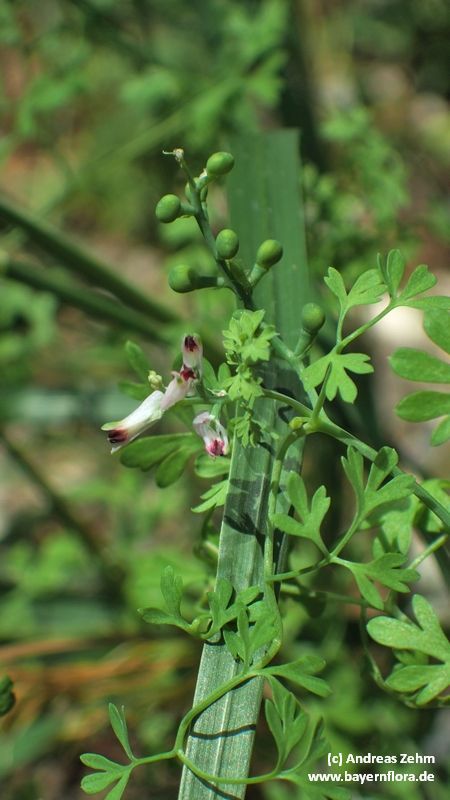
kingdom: Plantae
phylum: Tracheophyta
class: Magnoliopsida
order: Ranunculales
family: Papaveraceae
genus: Fumaria
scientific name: Fumaria capreolata
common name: White ramping-fumitory
